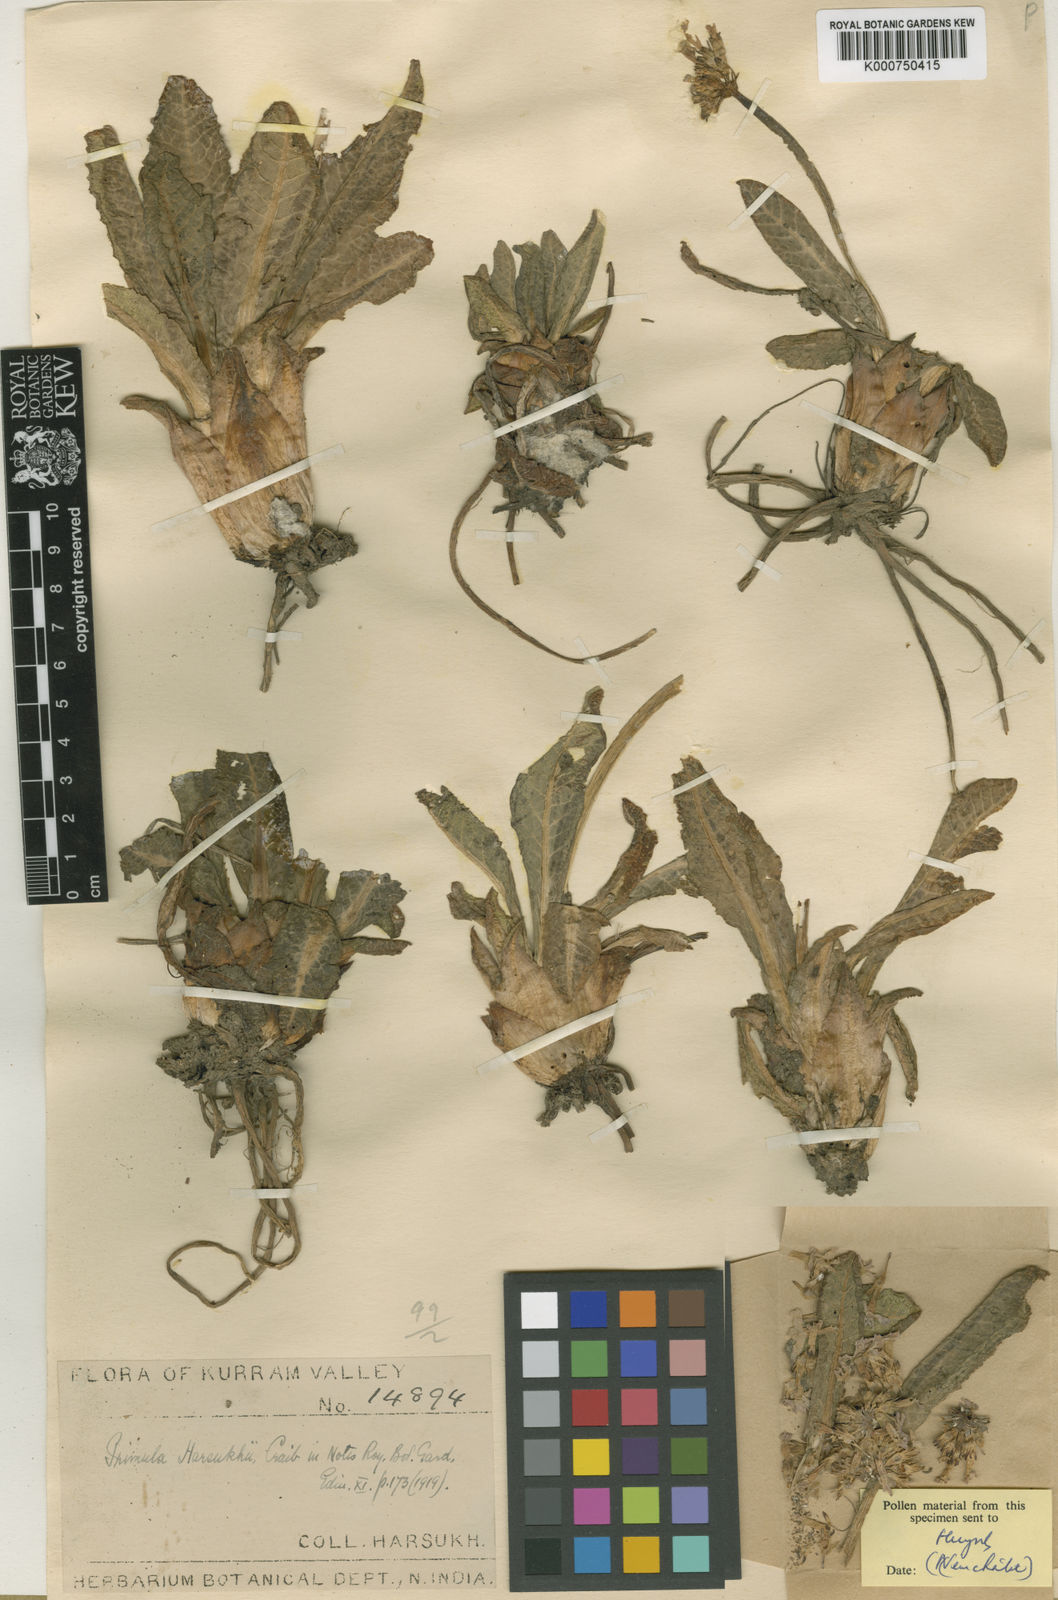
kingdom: Plantae
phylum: Tracheophyta
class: Magnoliopsida
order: Ericales
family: Primulaceae
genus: Primula
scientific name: Primula bellidifolia
